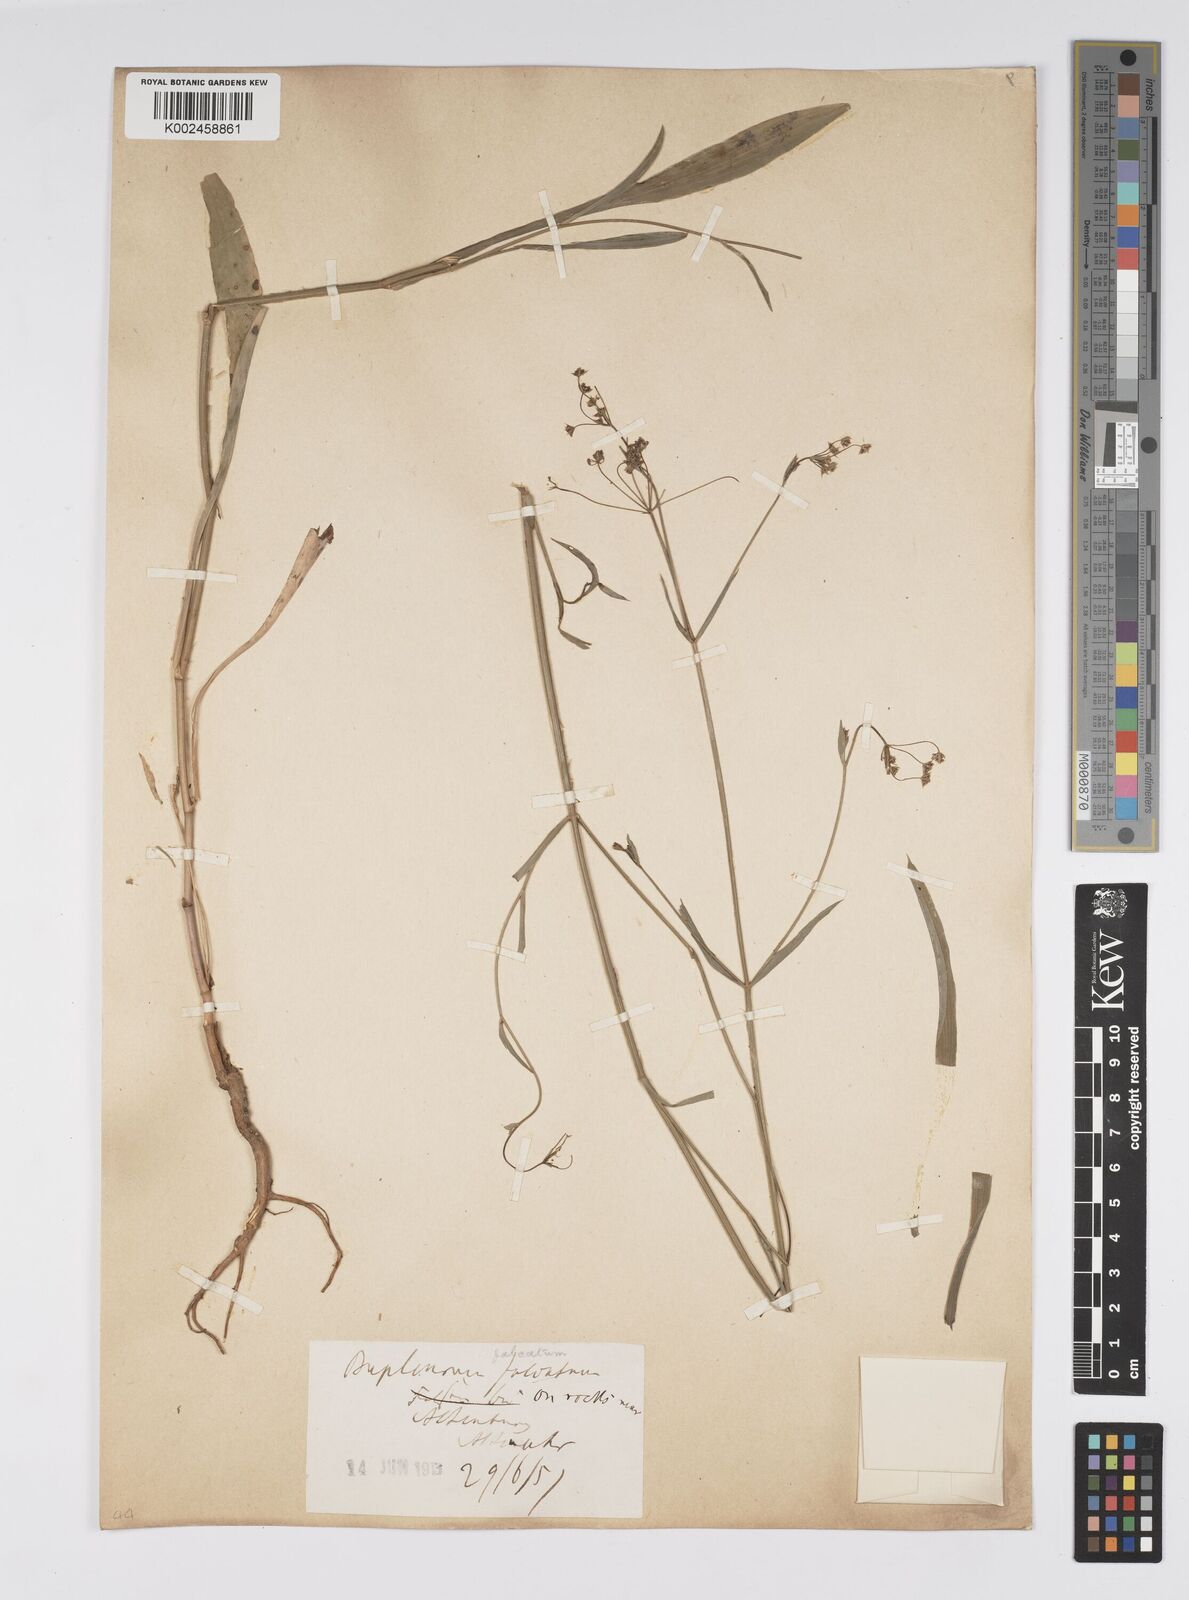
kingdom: Plantae
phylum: Tracheophyta
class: Magnoliopsida
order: Apiales
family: Apiaceae
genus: Bupleurum
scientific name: Bupleurum falcatum
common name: Sickle-leaved hare's-ear
